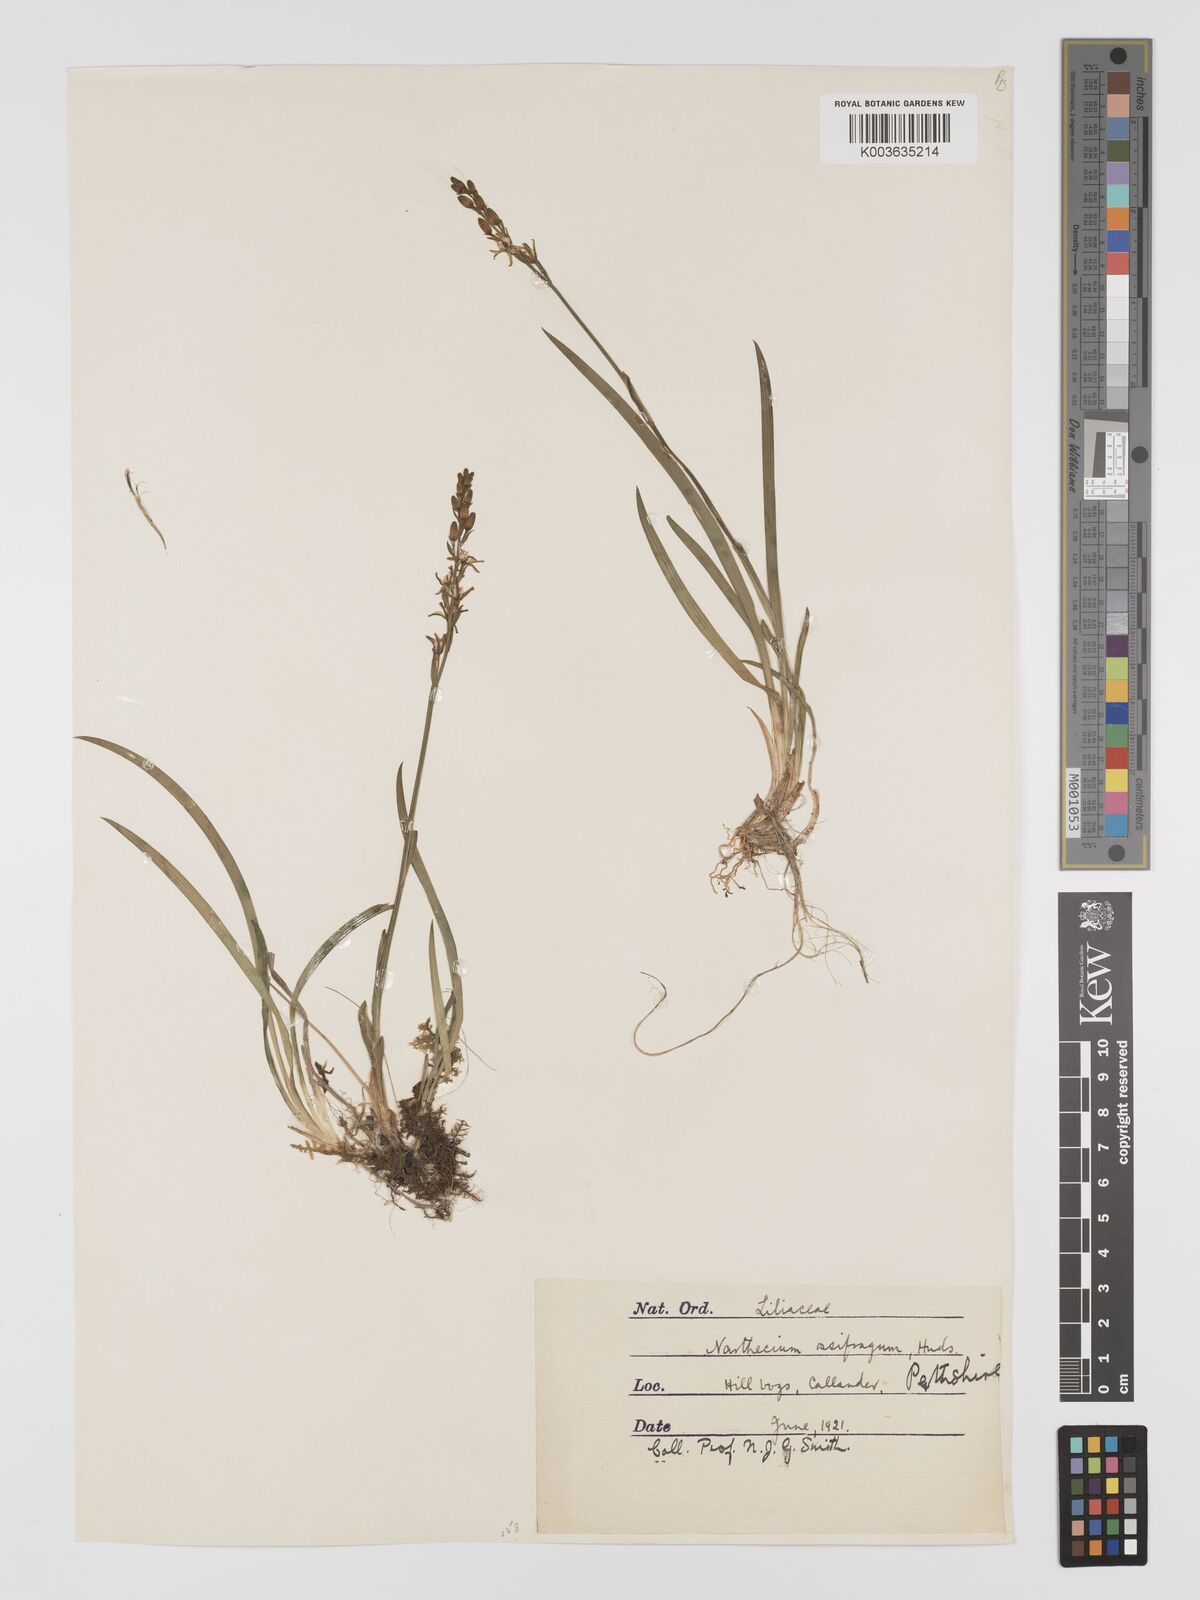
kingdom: Plantae
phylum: Tracheophyta
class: Liliopsida
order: Dioscoreales
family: Nartheciaceae
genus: Narthecium
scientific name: Narthecium
